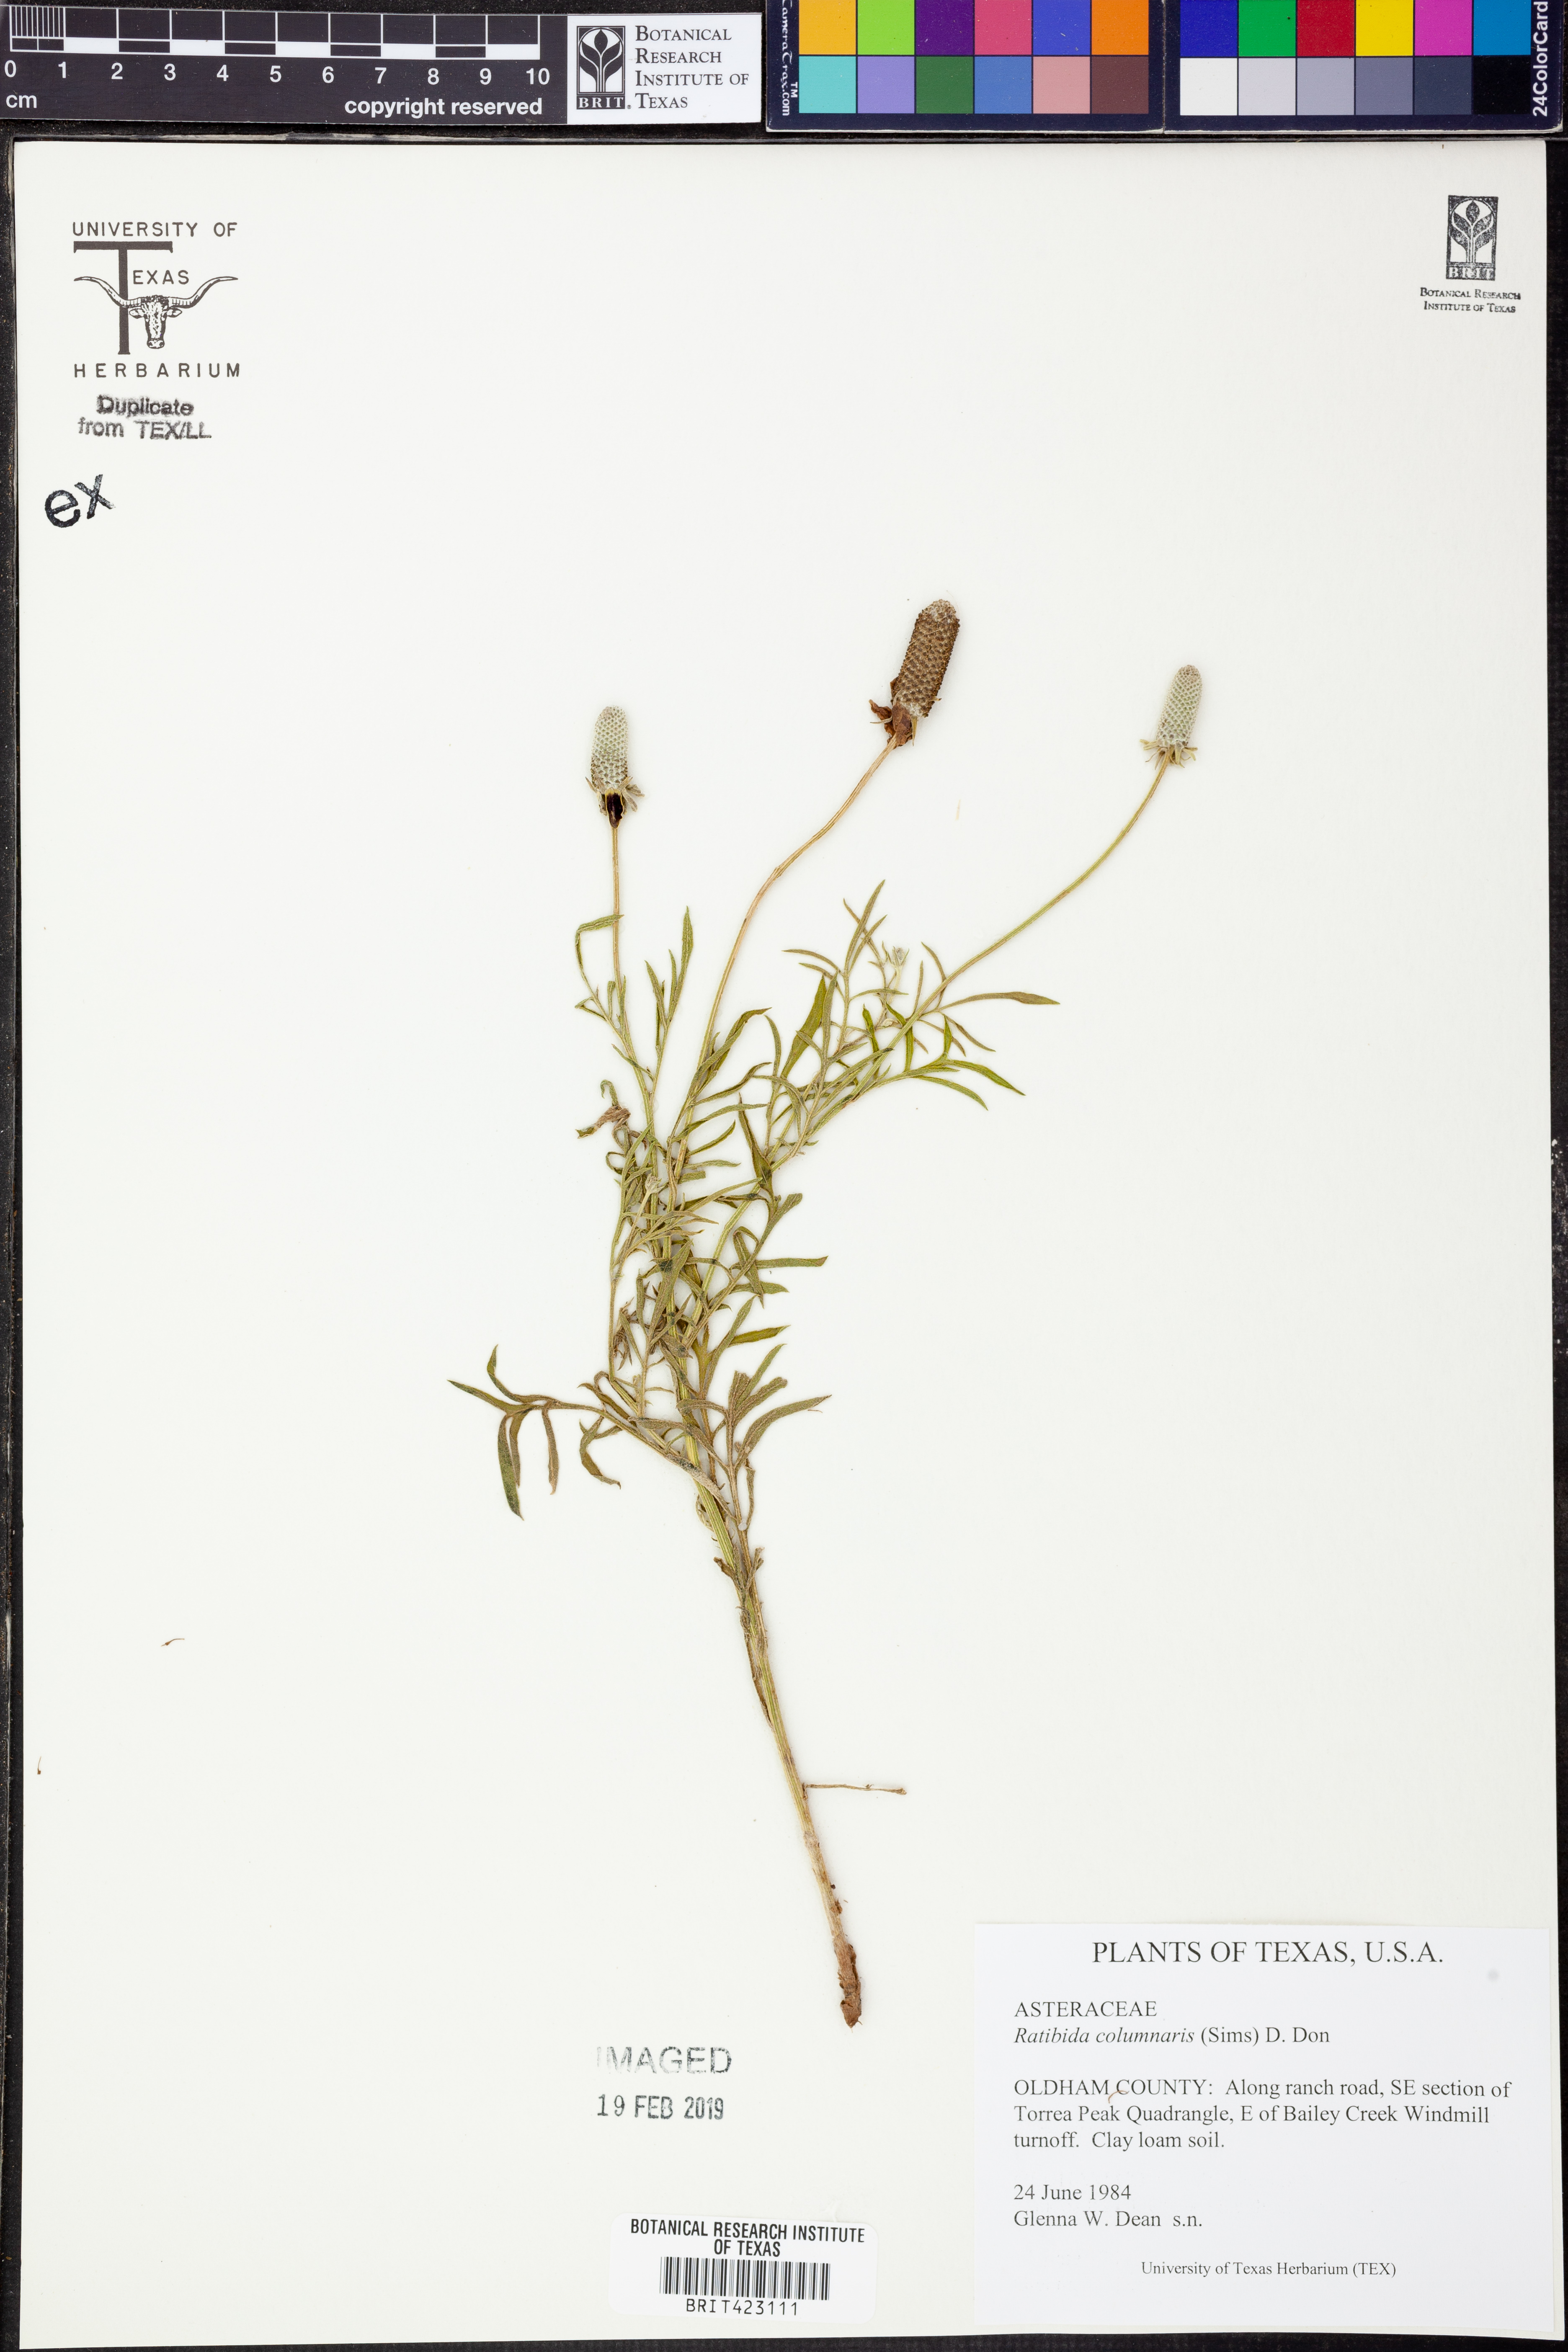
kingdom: Plantae
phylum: Tracheophyta
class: Magnoliopsida
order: Asterales
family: Asteraceae
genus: Ratibida
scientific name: Ratibida columnifera
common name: Prairie coneflower
